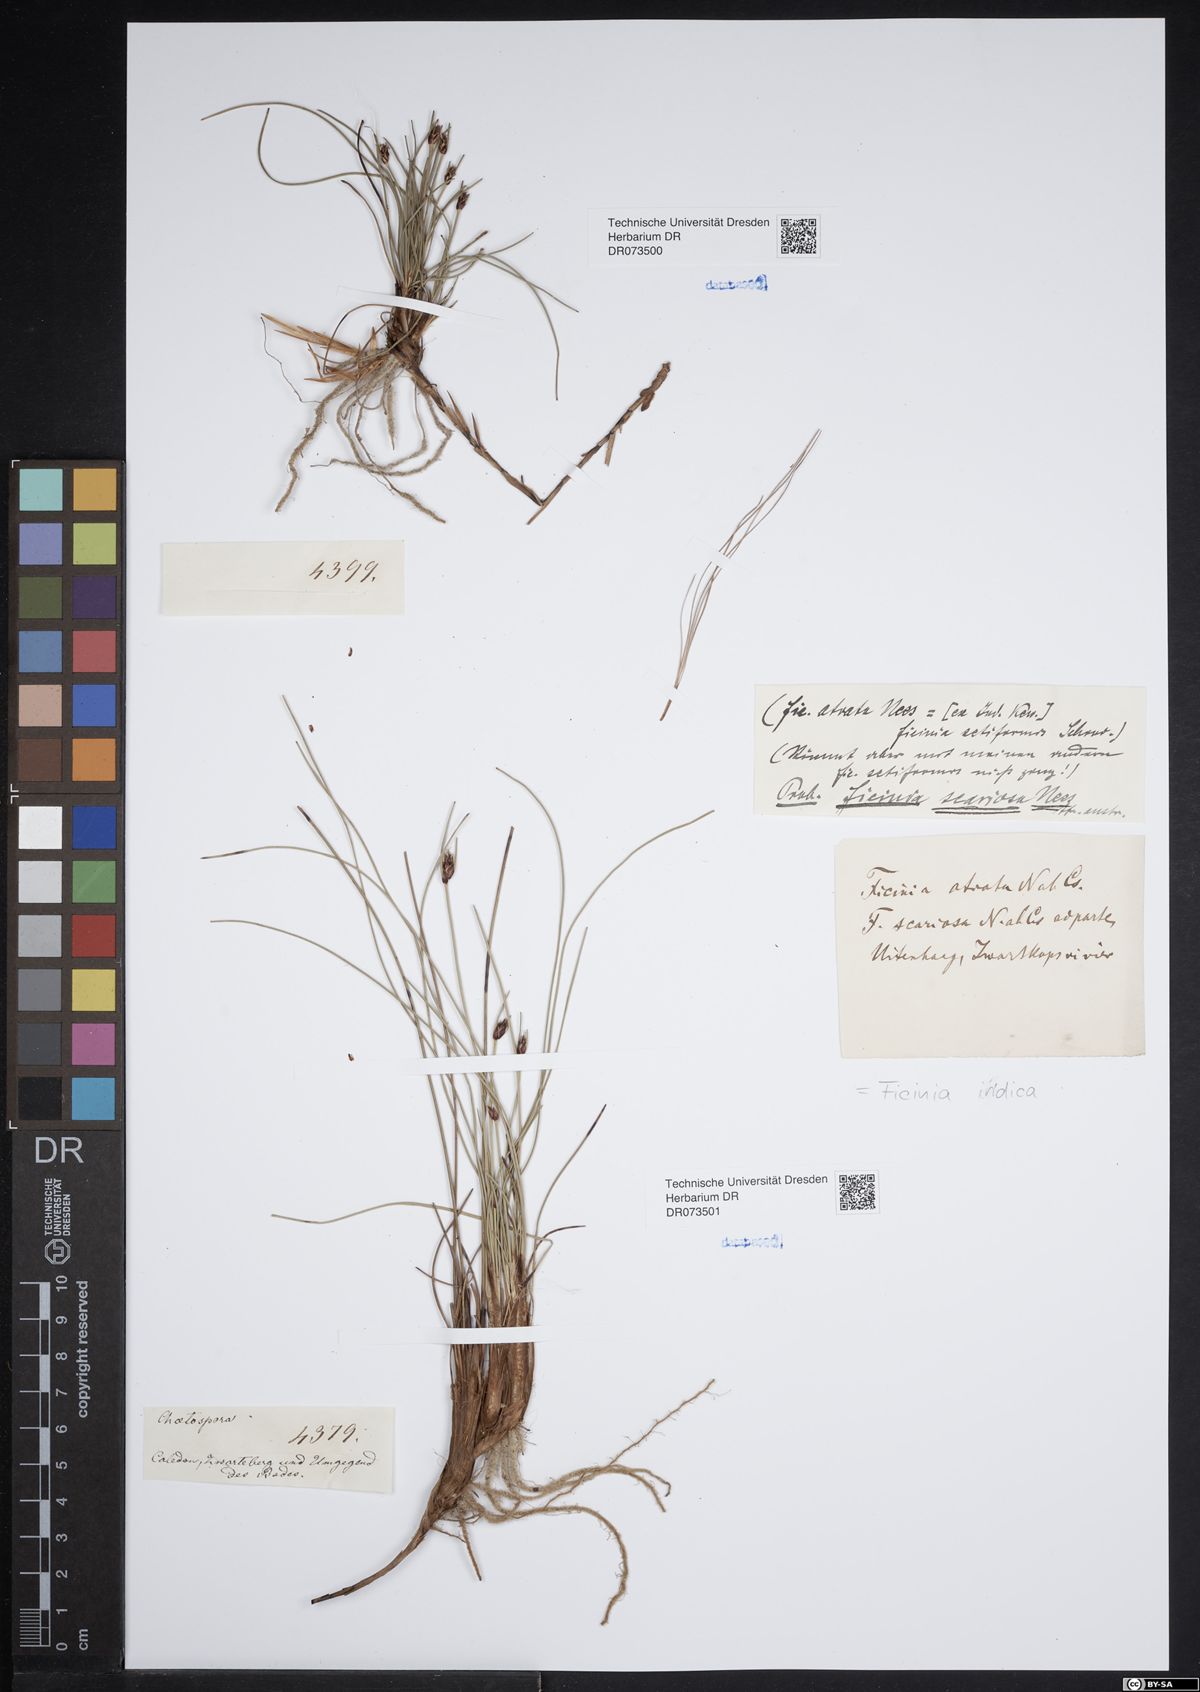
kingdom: Plantae
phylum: Tracheophyta
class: Liliopsida
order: Poales
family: Cyperaceae
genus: Ficinia
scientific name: Ficinia indica
